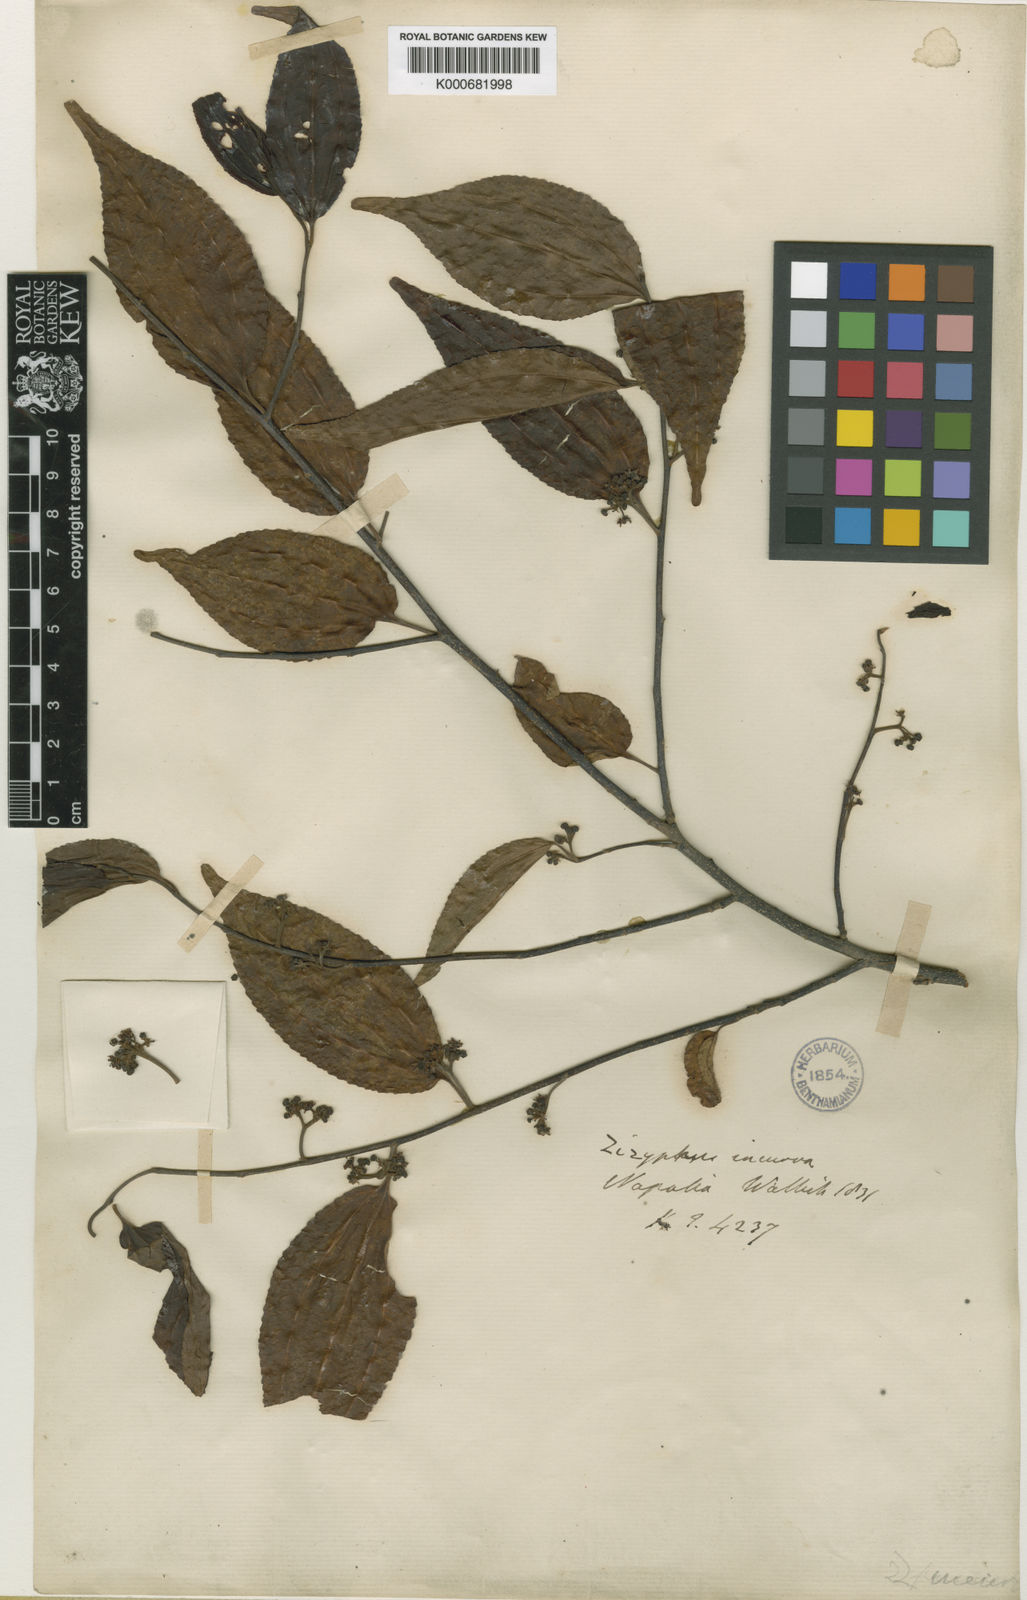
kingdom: Plantae
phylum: Tracheophyta
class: Magnoliopsida
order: Rosales
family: Rhamnaceae
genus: Ziziphus
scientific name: Ziziphus incurva
